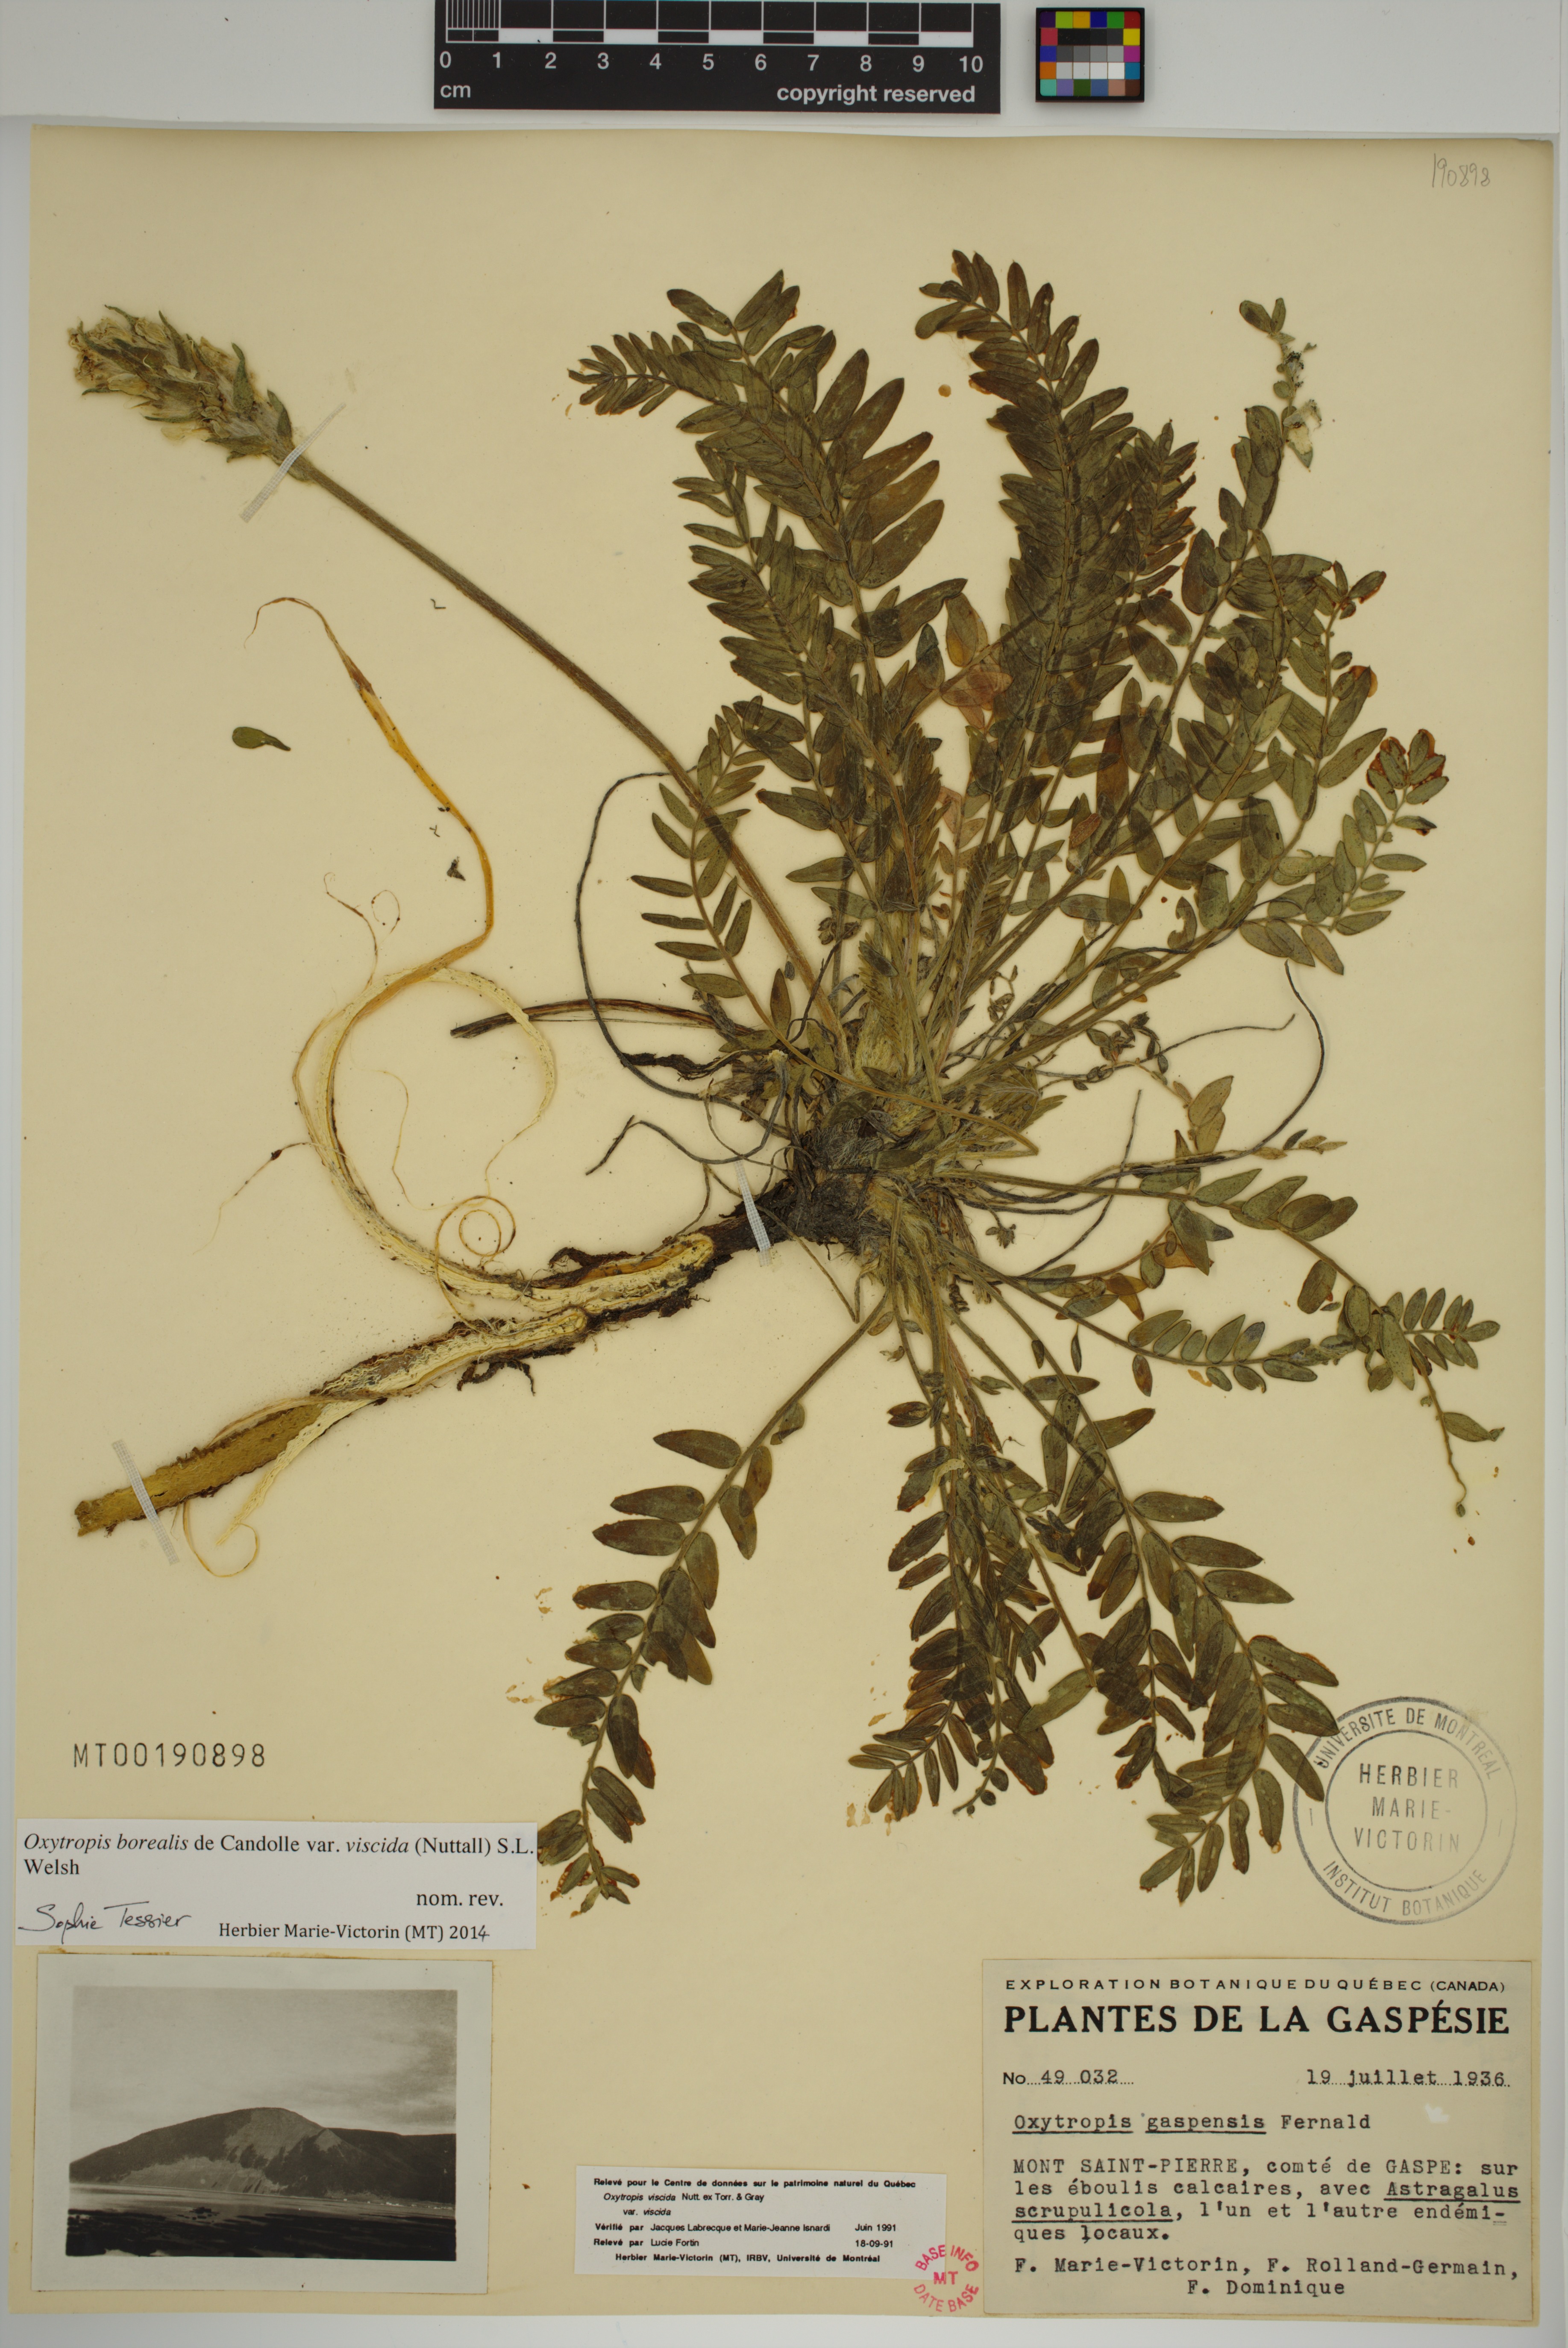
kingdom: Plantae
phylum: Tracheophyta
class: Magnoliopsida
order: Fabales
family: Fabaceae
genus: Oxytropis
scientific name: Oxytropis borealis
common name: Boreal locoweed
